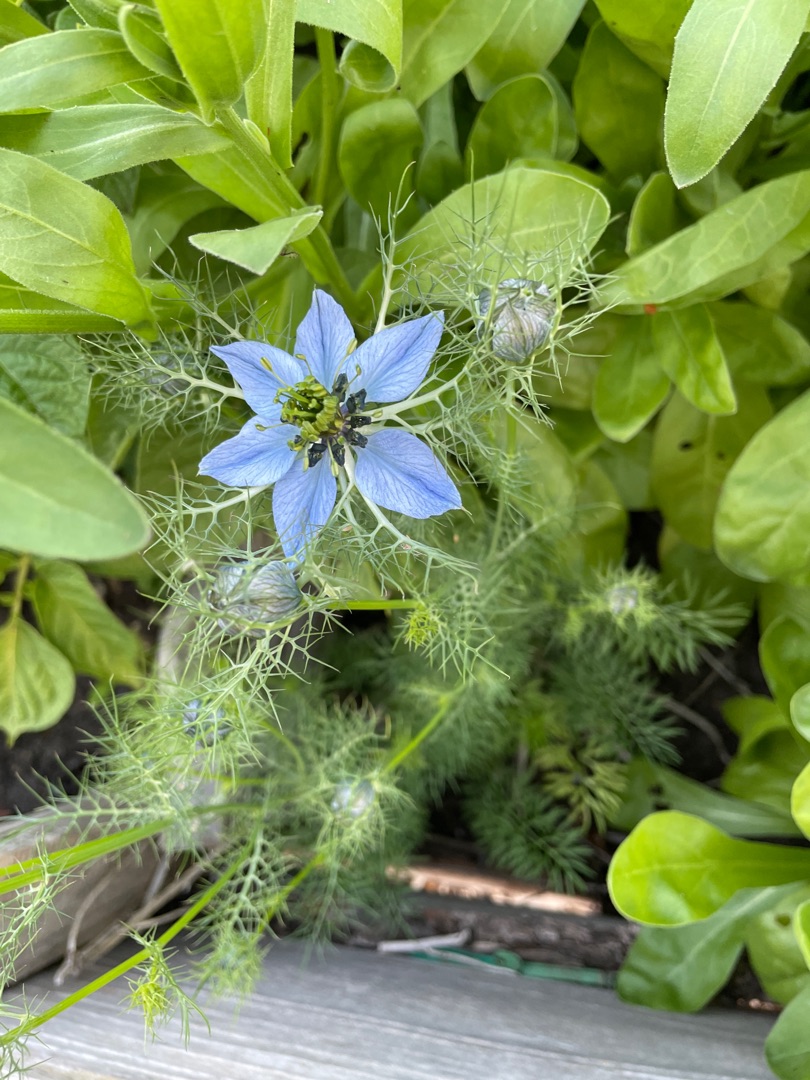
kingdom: Plantae
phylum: Tracheophyta
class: Magnoliopsida
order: Ranunculales
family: Ranunculaceae
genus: Nigella
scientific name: Nigella damascena
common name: Jomfru i det grønne
